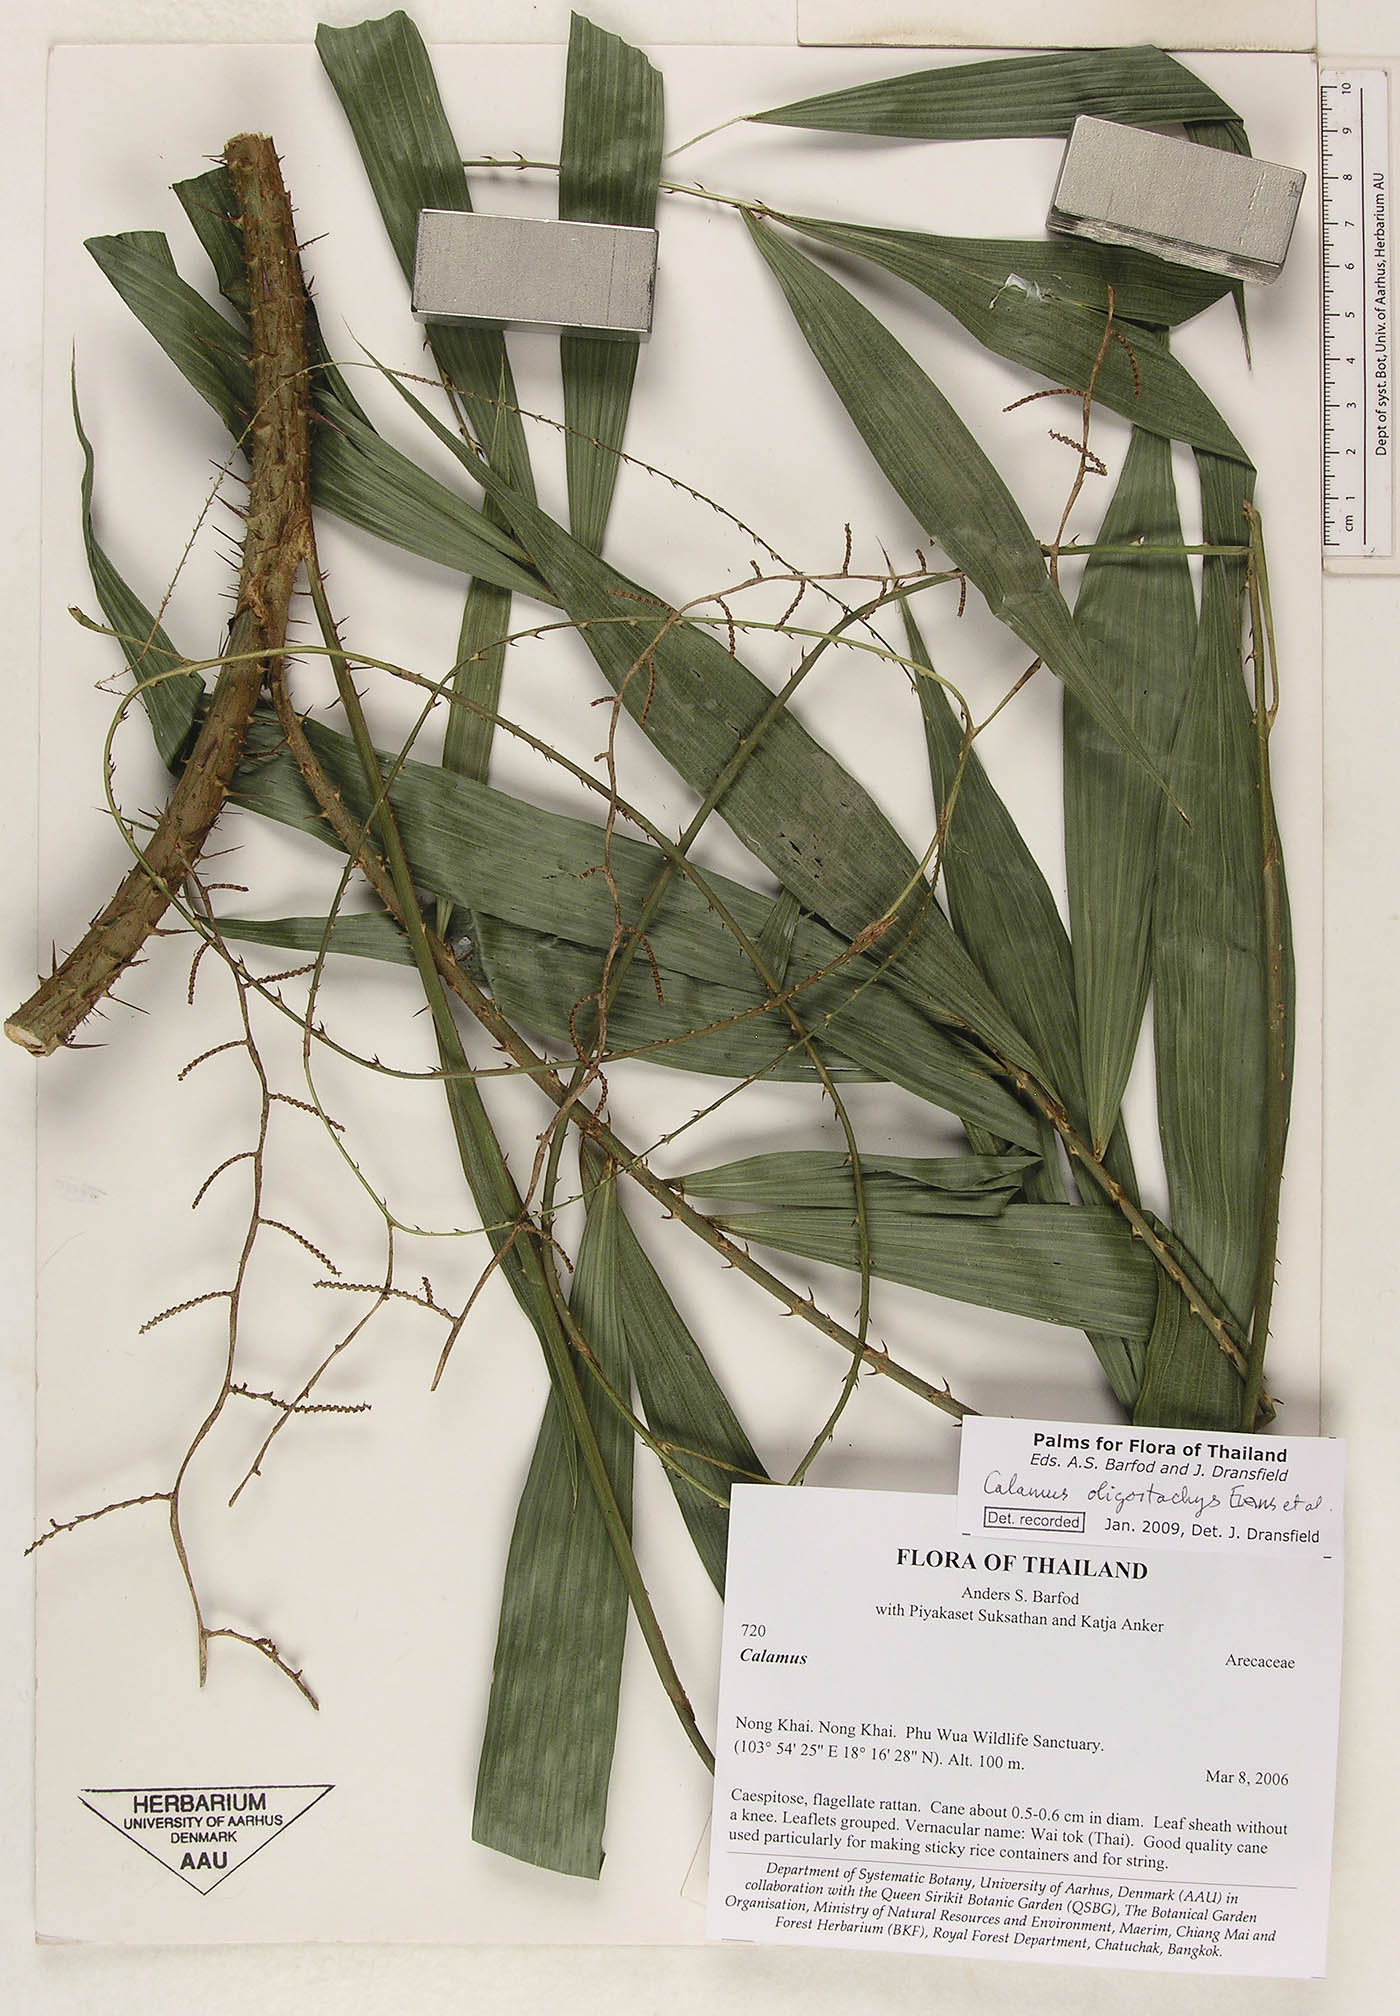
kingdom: Plantae
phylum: Tracheophyta
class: Liliopsida
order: Arecales
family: Arecaceae
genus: Calamus
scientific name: Calamus oligostachys
